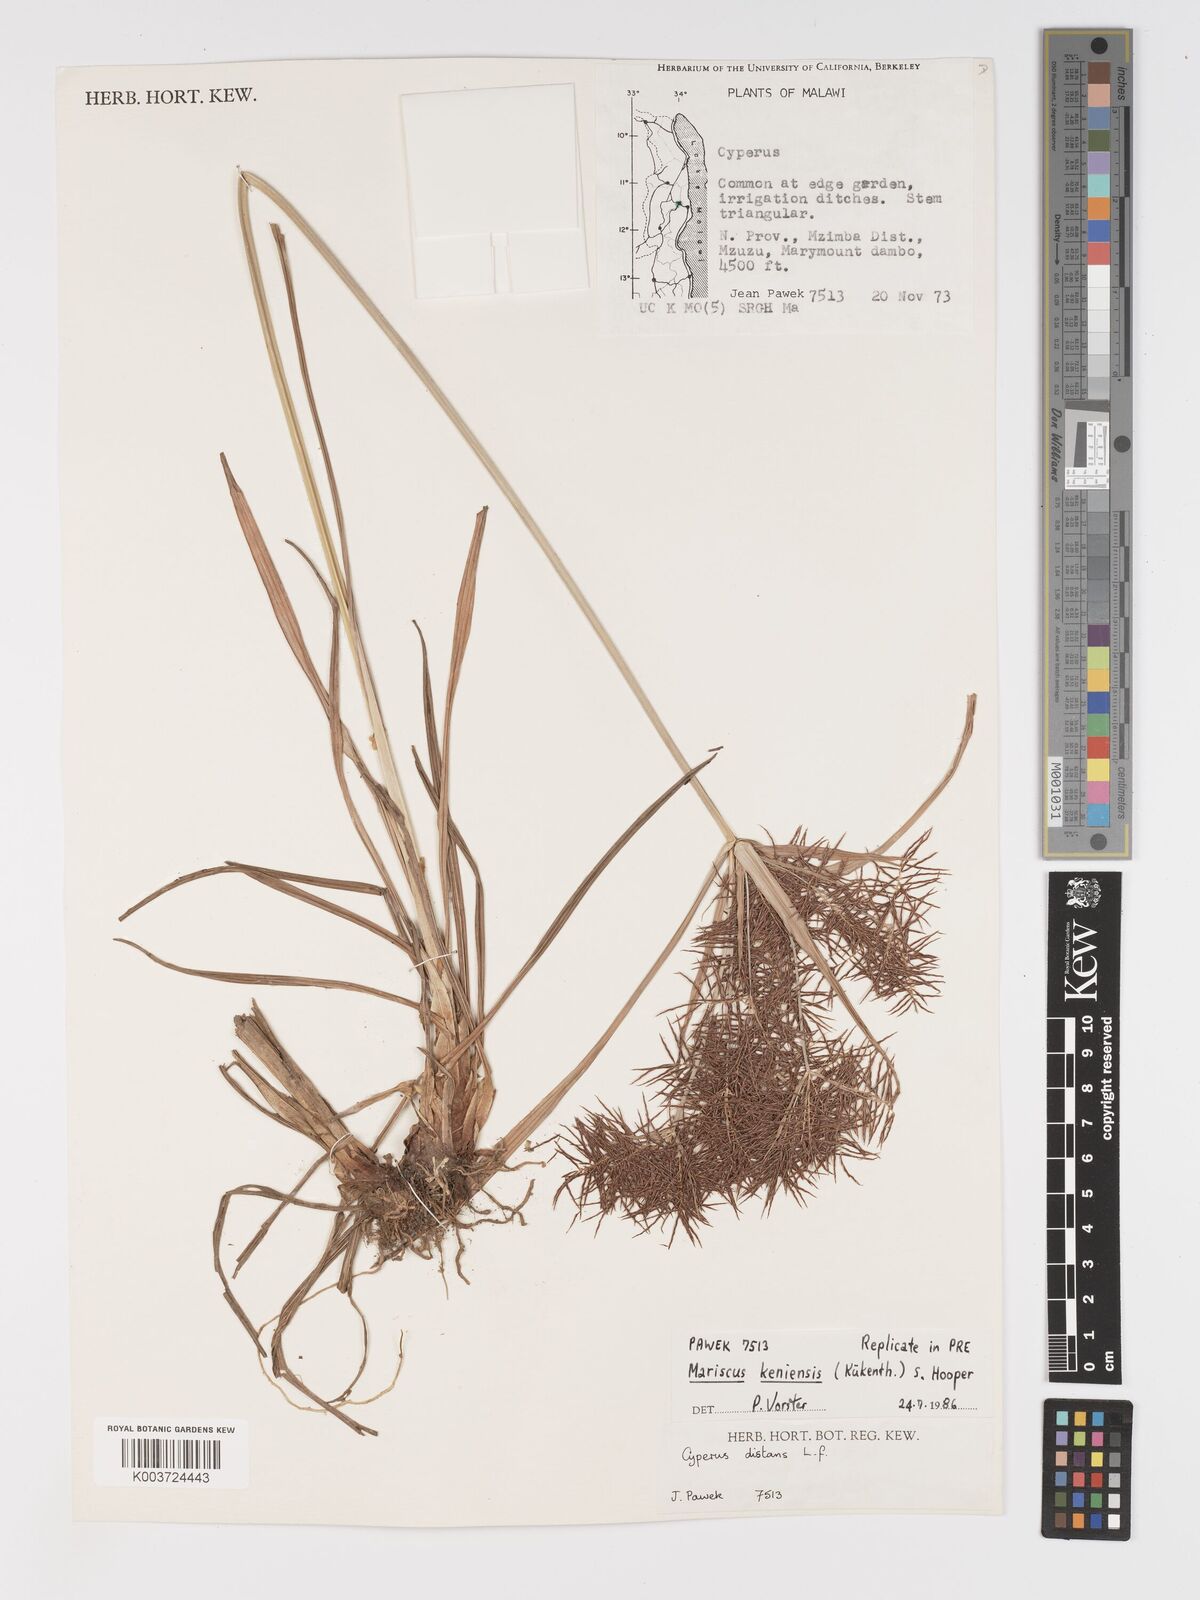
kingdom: Plantae
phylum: Tracheophyta
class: Liliopsida
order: Poales
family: Cyperaceae
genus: Cyperus
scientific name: Cyperus
